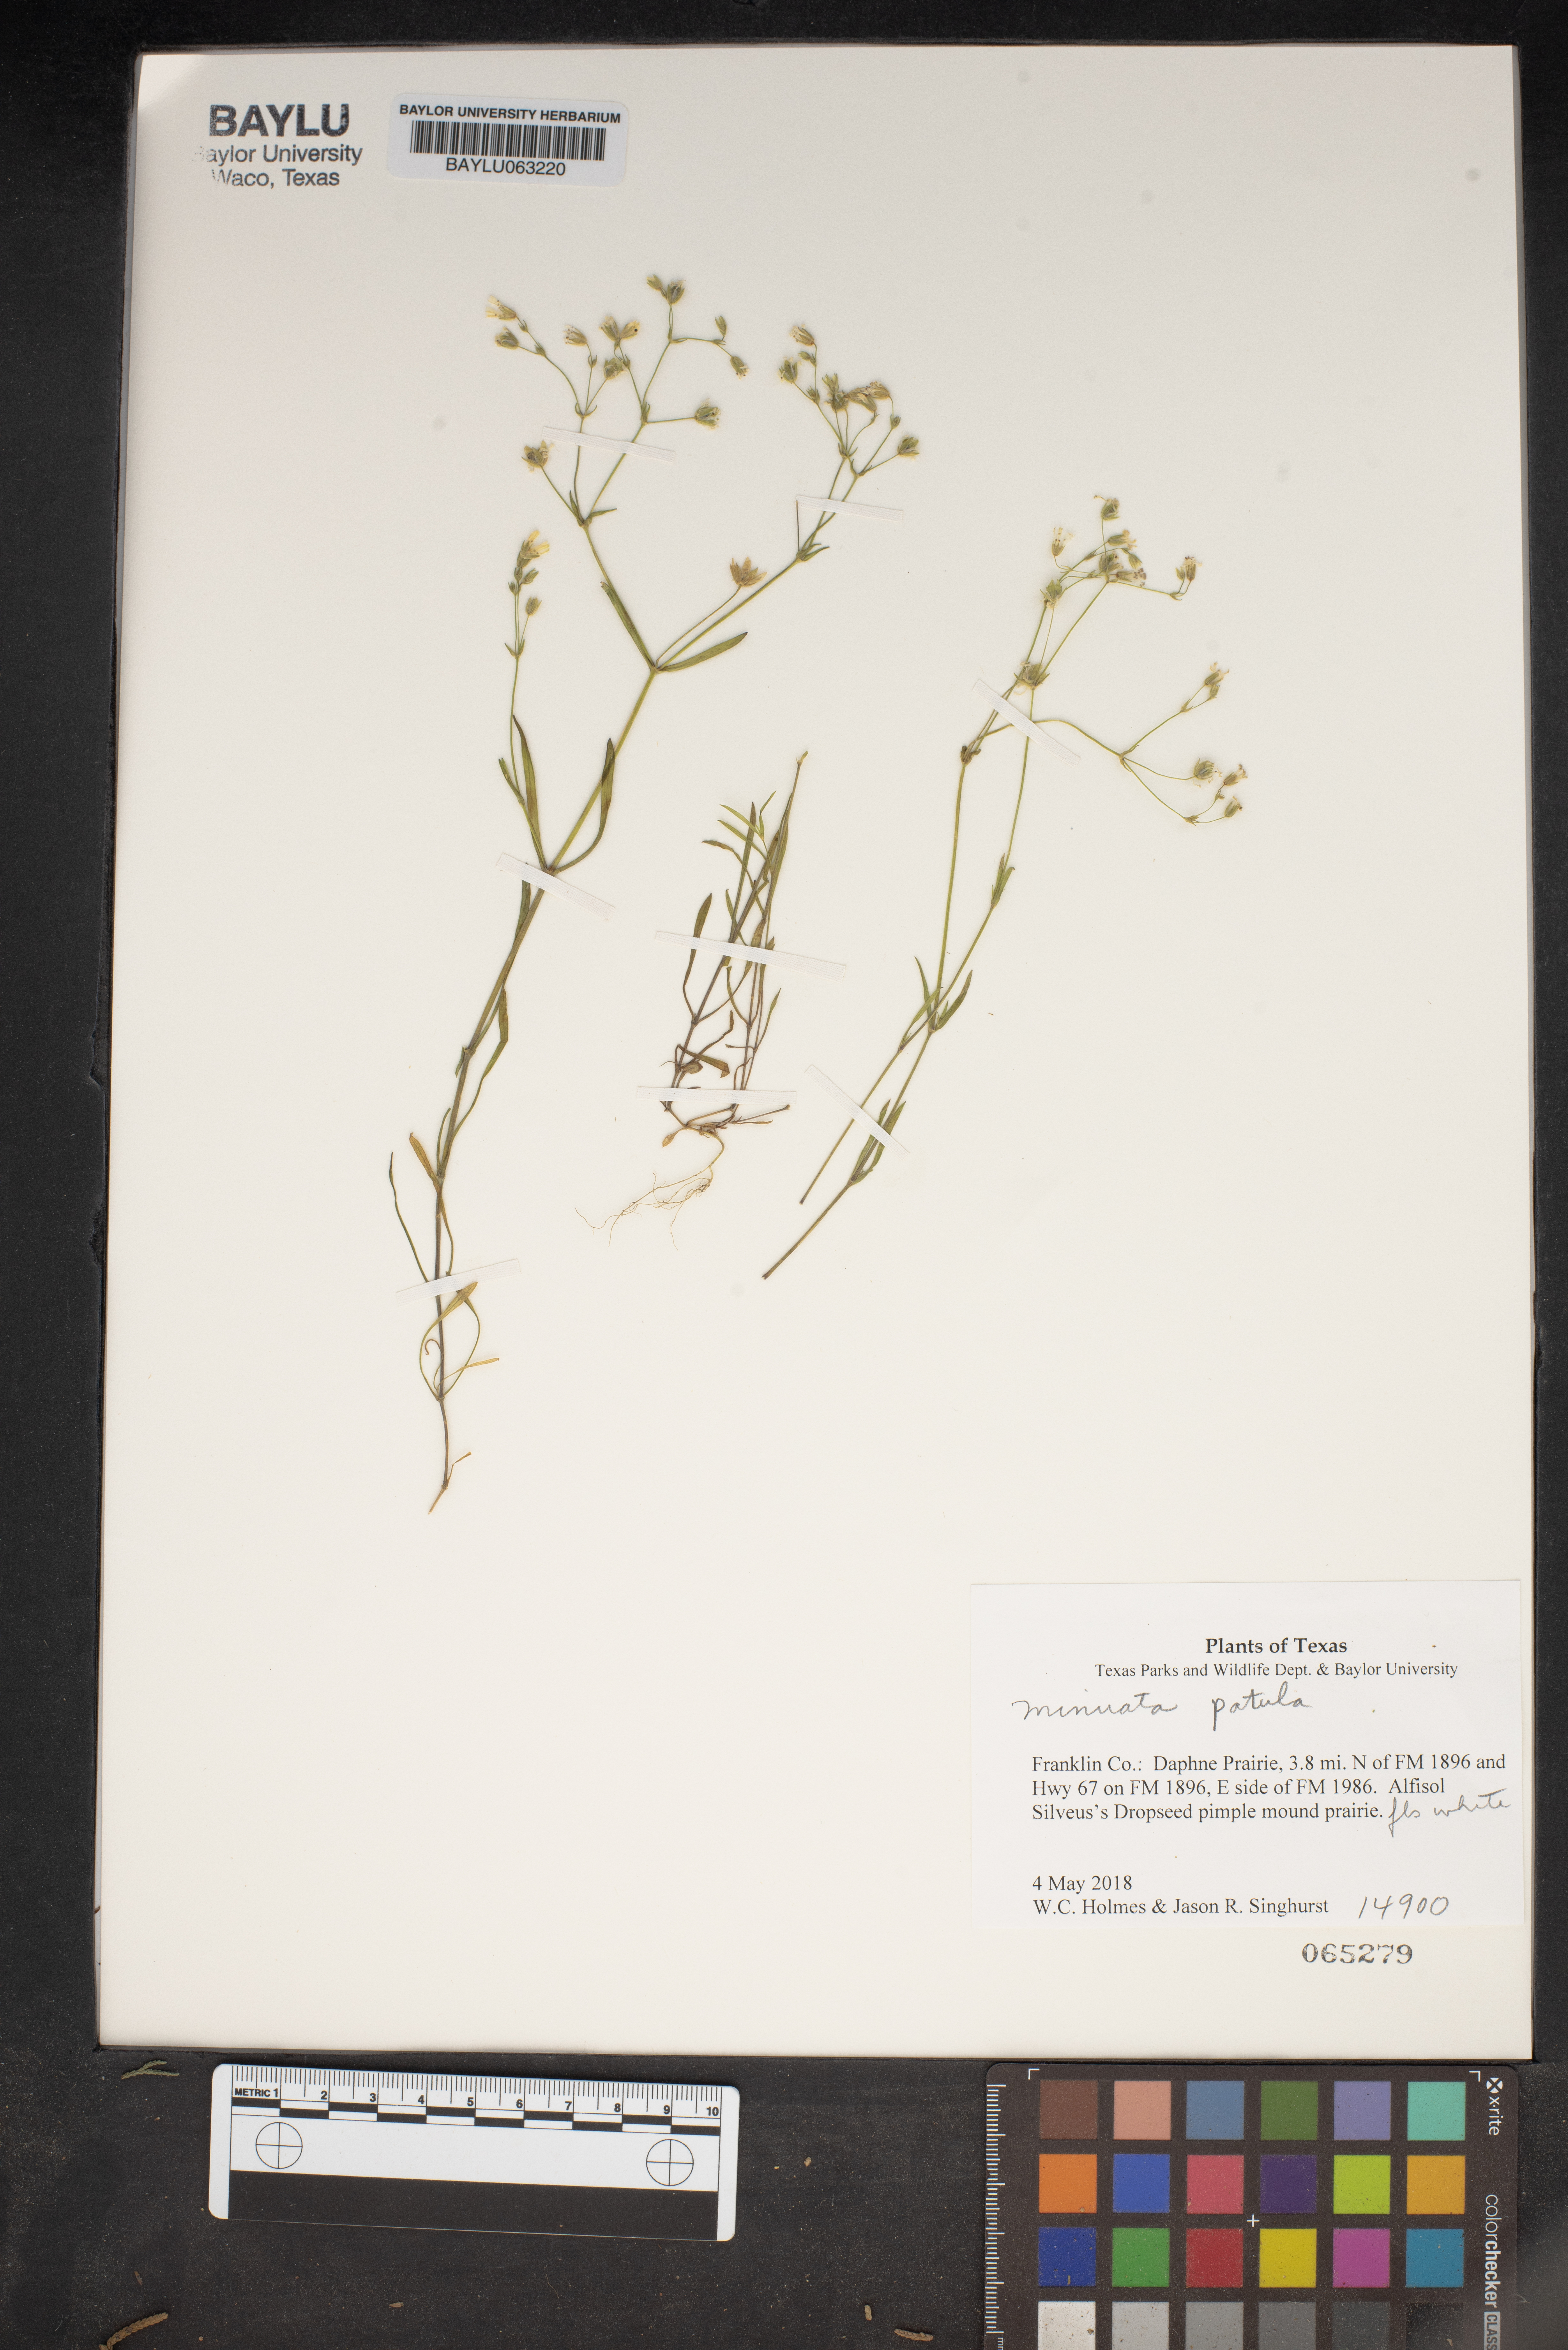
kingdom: Plantae
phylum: Tracheophyta
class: Magnoliopsida
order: Caryophyllales
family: Caryophyllaceae
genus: Mononeuria
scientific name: Mononeuria patula
